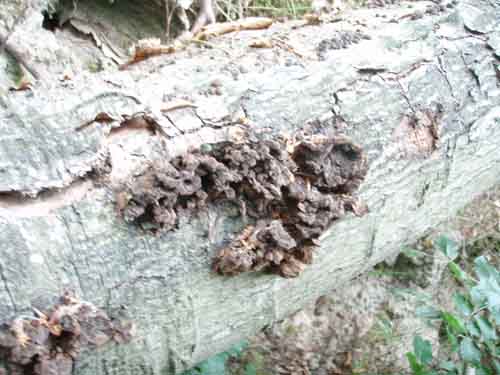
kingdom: Fungi
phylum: Basidiomycota
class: Agaricomycetes
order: Hymenochaetales
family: Hymenochaetaceae
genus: Mensularia
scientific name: Mensularia nodulosa
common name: bøge-spejlporesvamp
